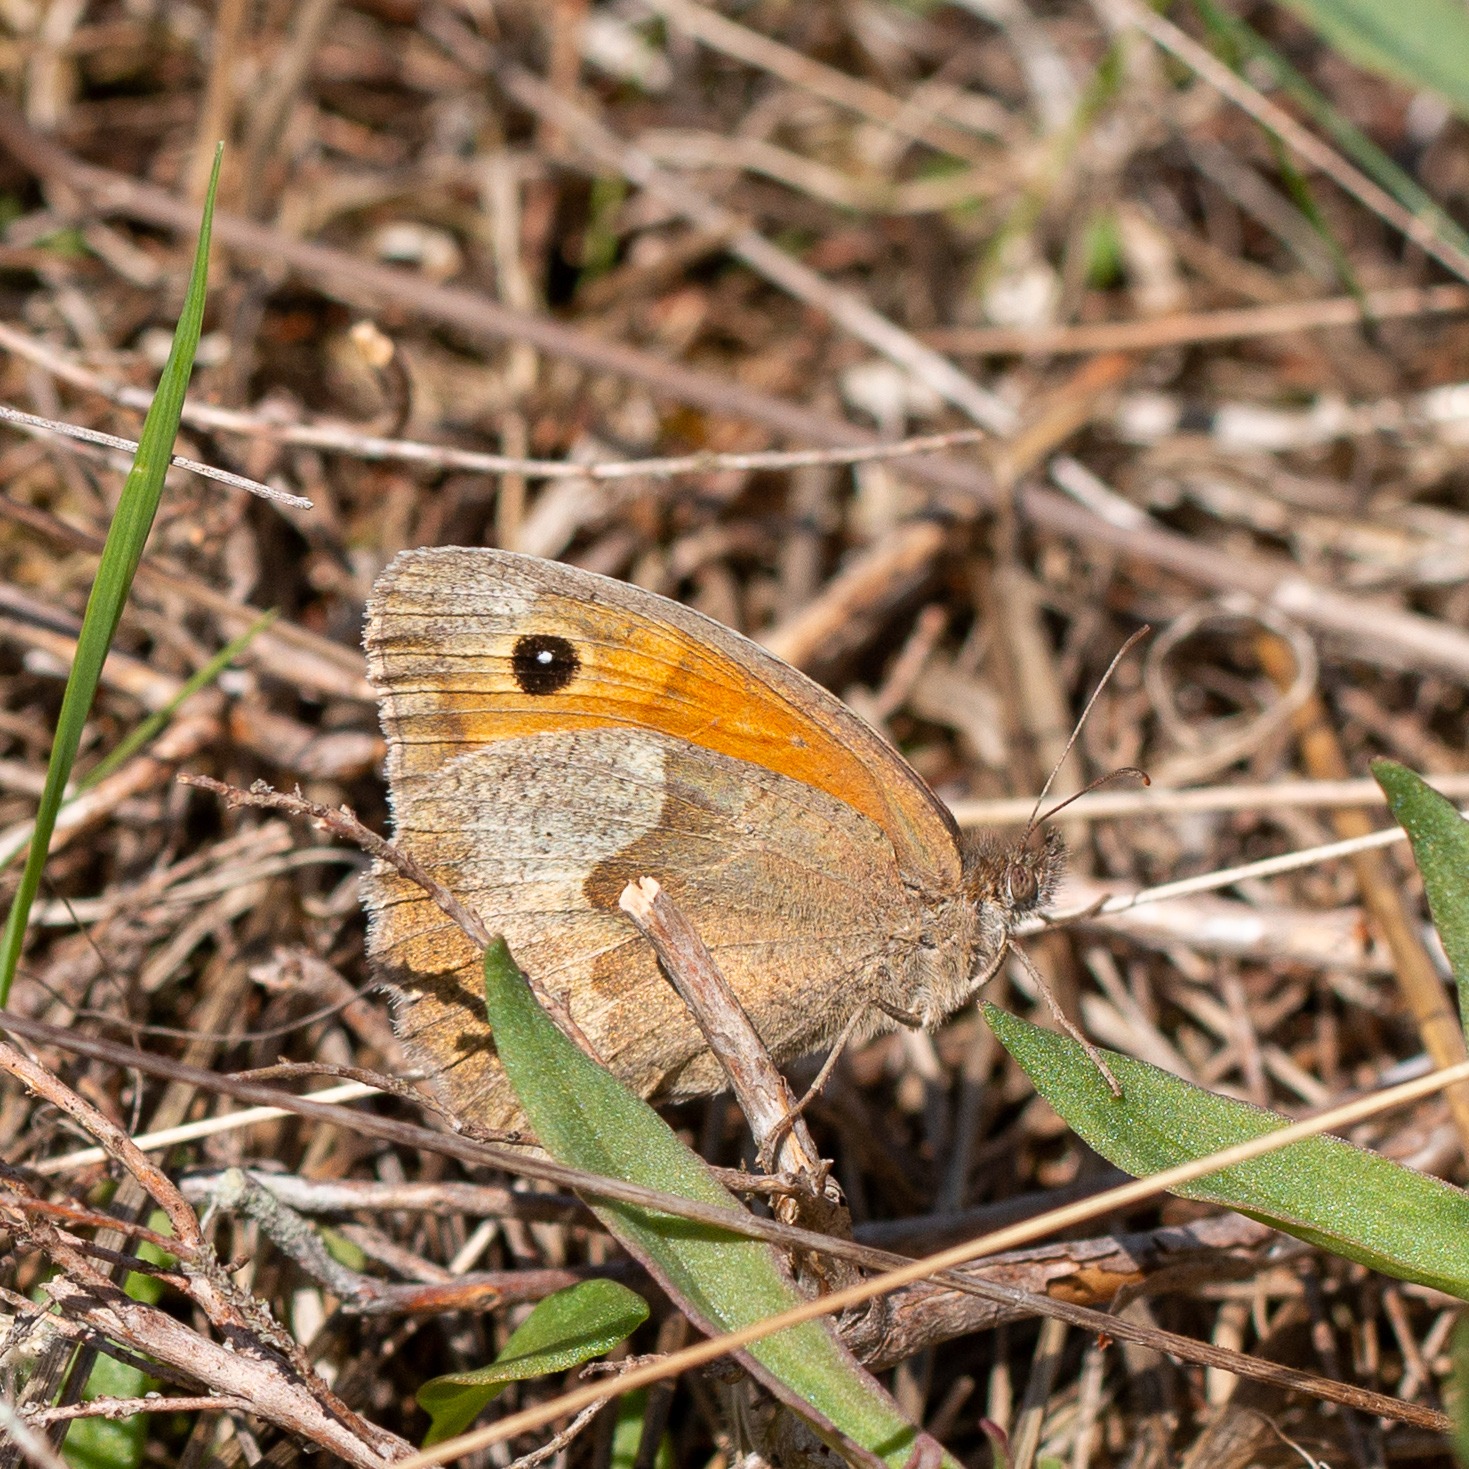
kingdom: Animalia
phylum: Arthropoda
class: Insecta
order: Lepidoptera
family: Nymphalidae
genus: Maniola
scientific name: Maniola jurtina
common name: Græsrandøje
